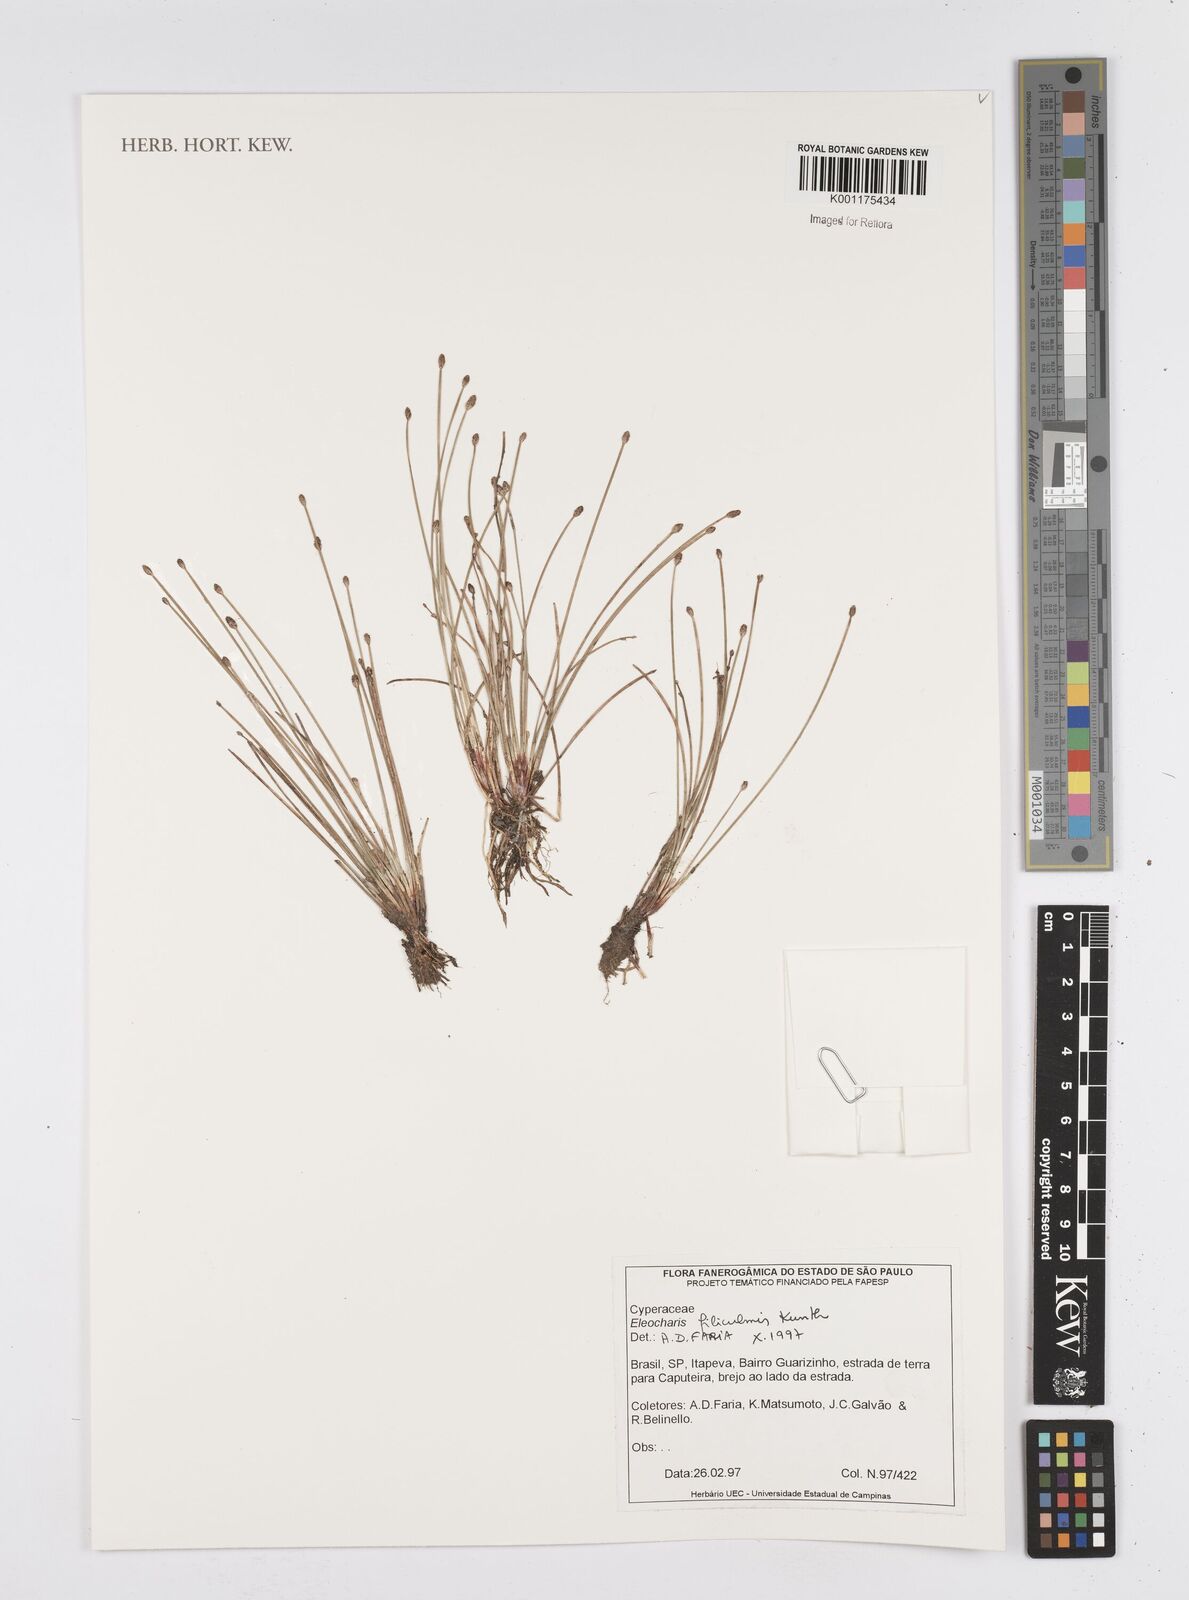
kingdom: Plantae
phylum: Tracheophyta
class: Liliopsida
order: Poales
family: Cyperaceae
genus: Eleocharis
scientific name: Eleocharis filiculmis
